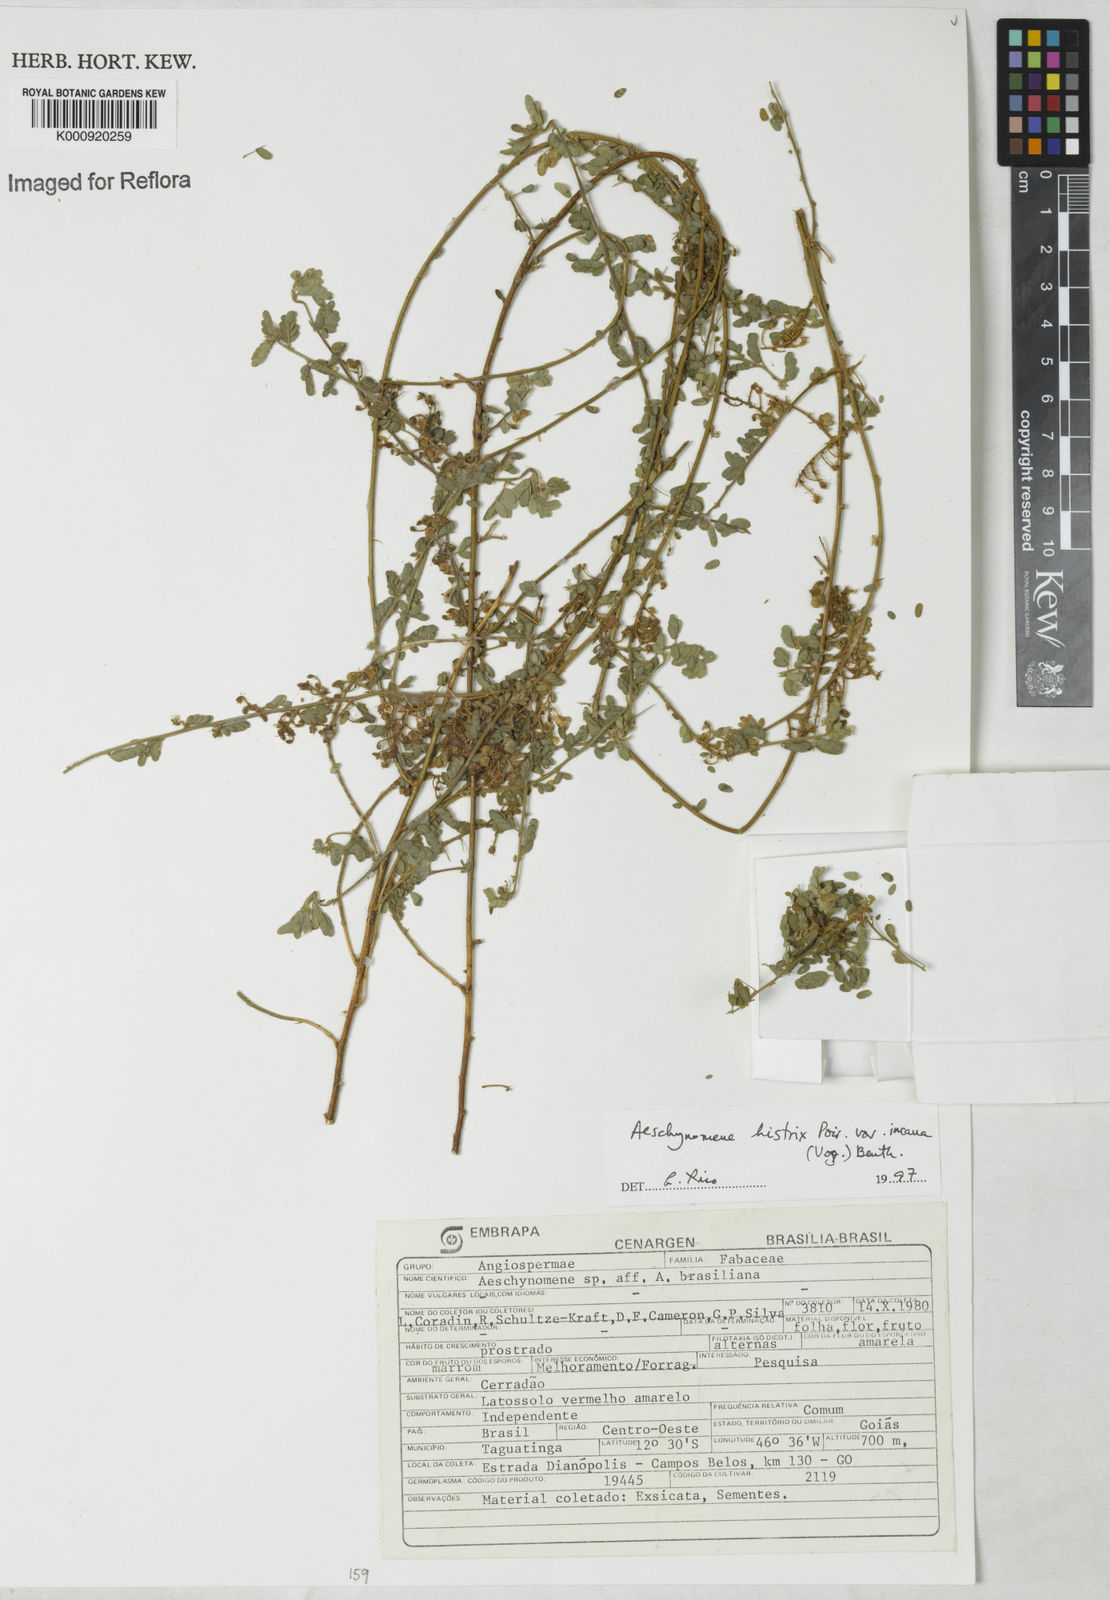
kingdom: Plantae
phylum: Tracheophyta
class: Magnoliopsida
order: Fabales
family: Fabaceae
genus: Ctenodon
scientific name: Ctenodon histrix
